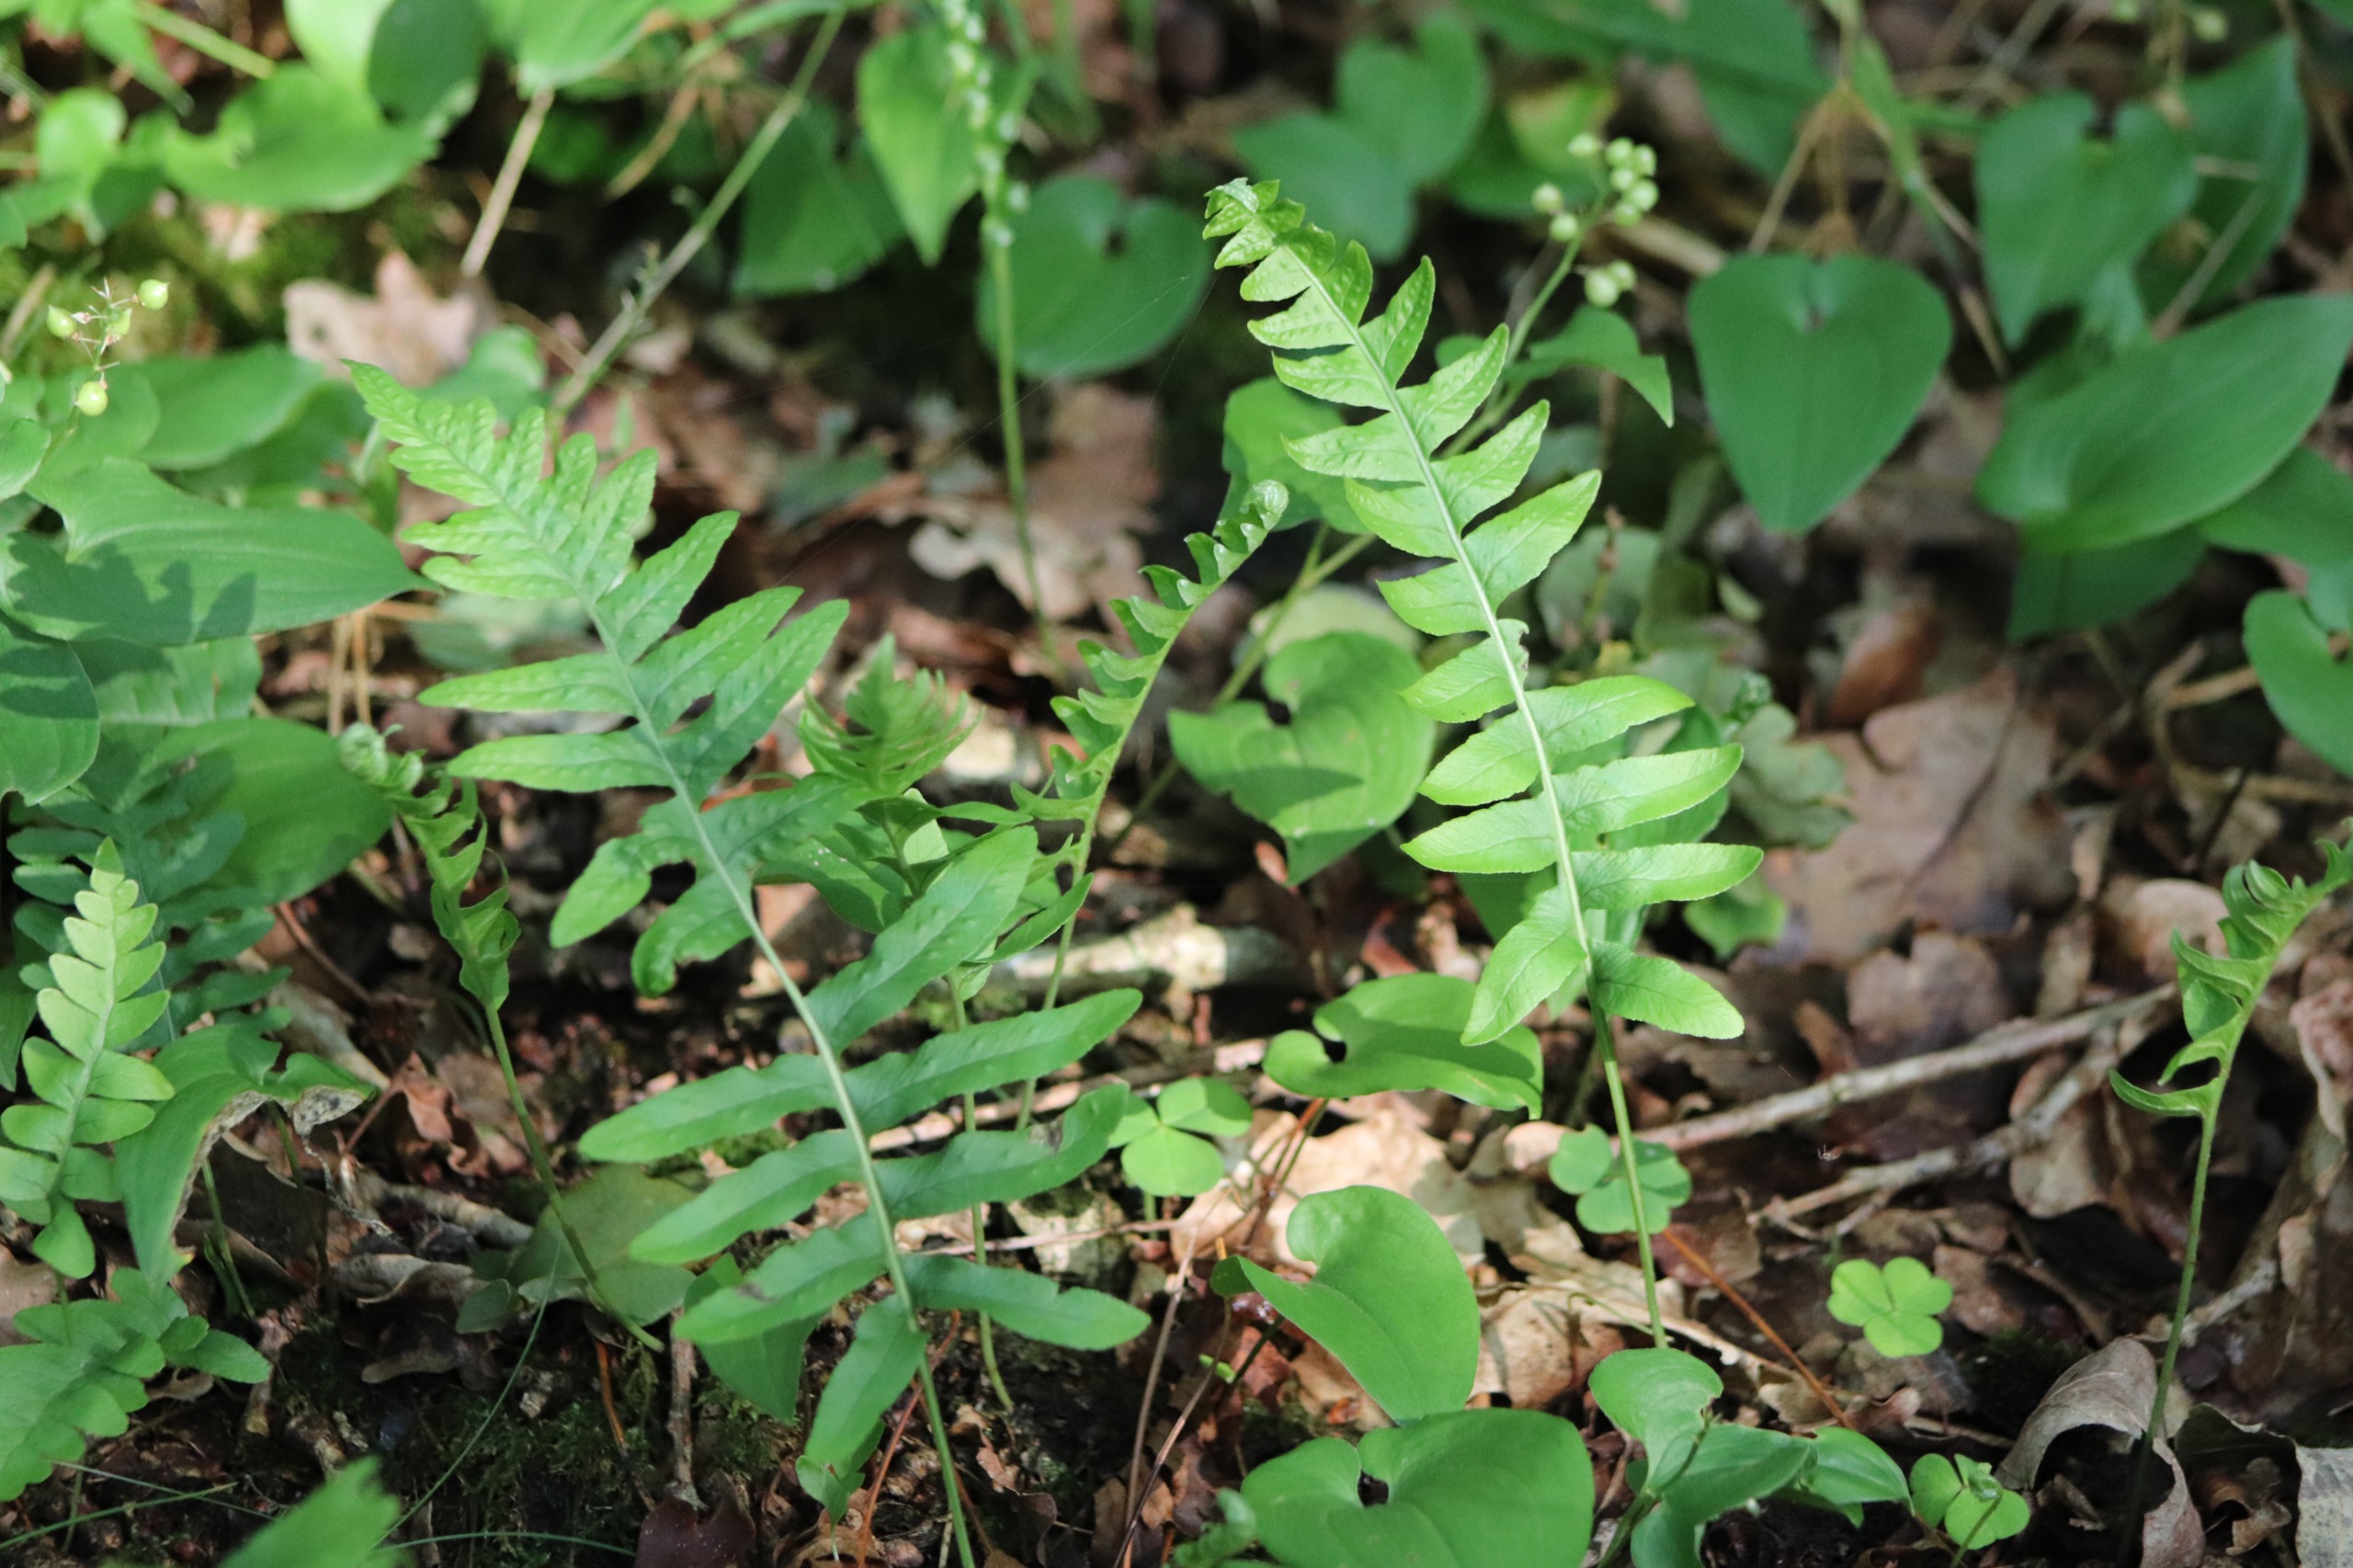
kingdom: Plantae
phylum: Tracheophyta
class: Polypodiopsida
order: Polypodiales
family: Polypodiaceae
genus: Polypodium
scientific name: Polypodium vulgare
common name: Almindelig engelsød
